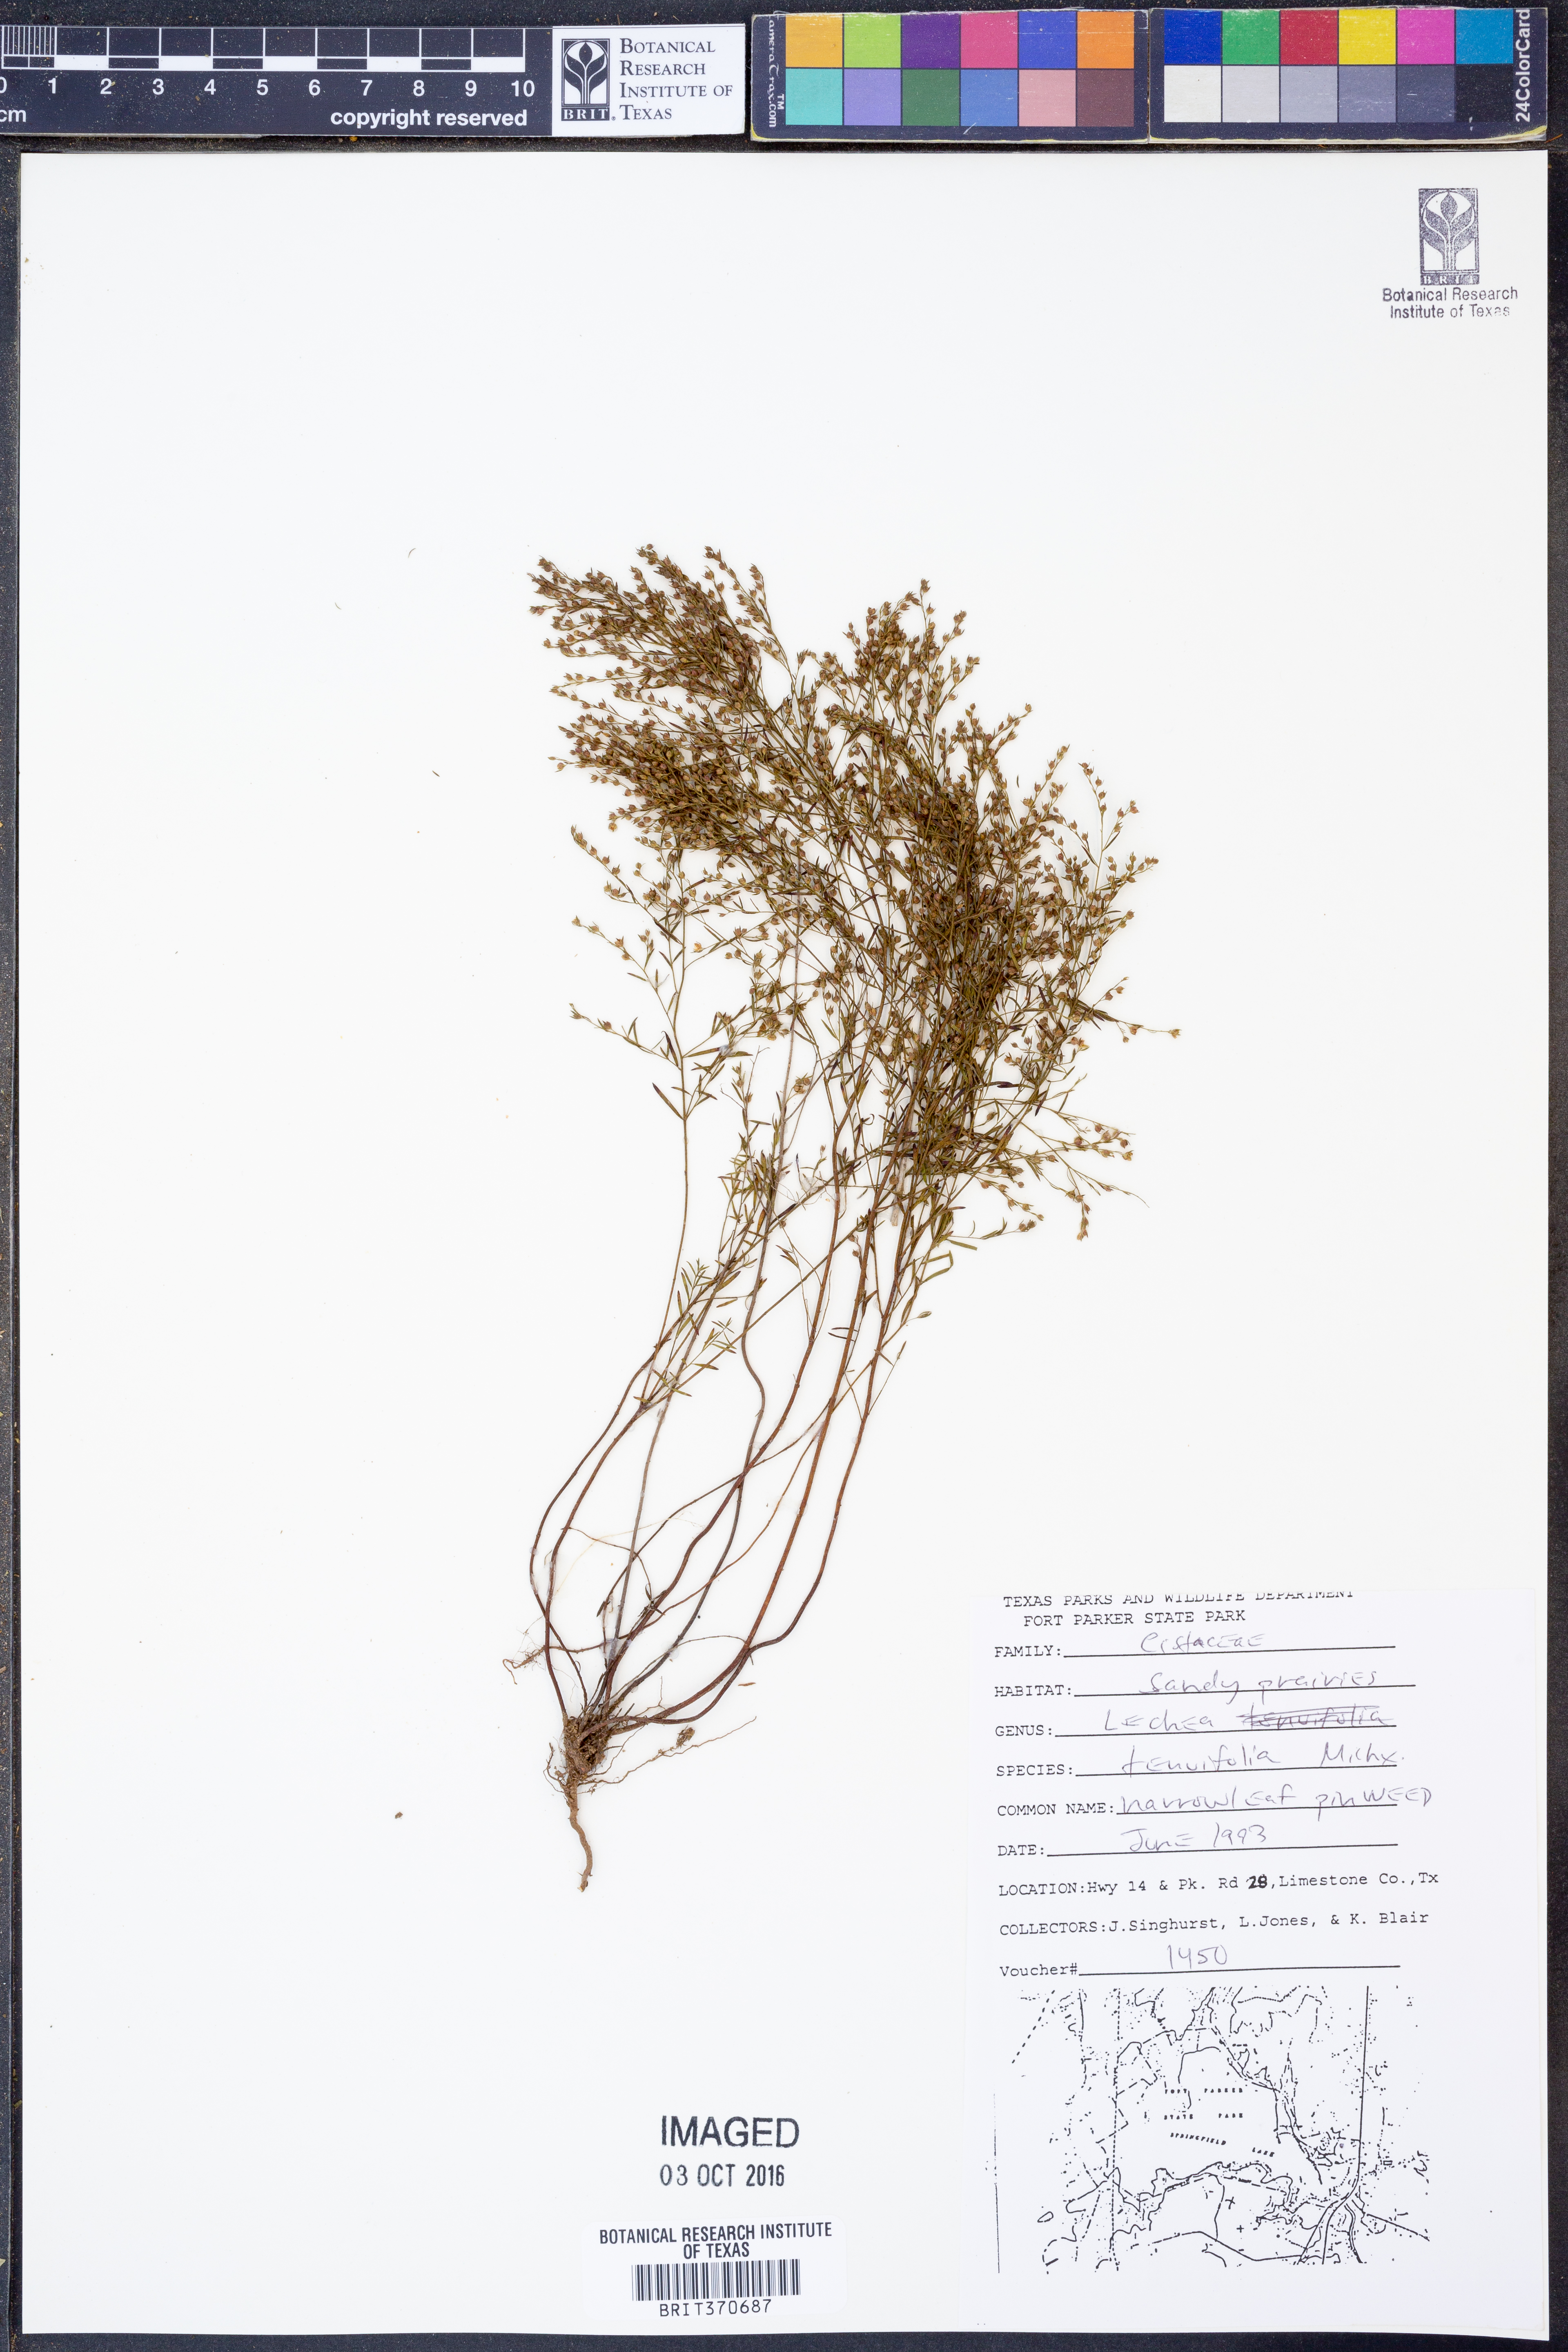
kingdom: Plantae
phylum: Tracheophyta
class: Magnoliopsida
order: Malvales
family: Cistaceae
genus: Lechea
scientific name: Lechea tenuifolia
